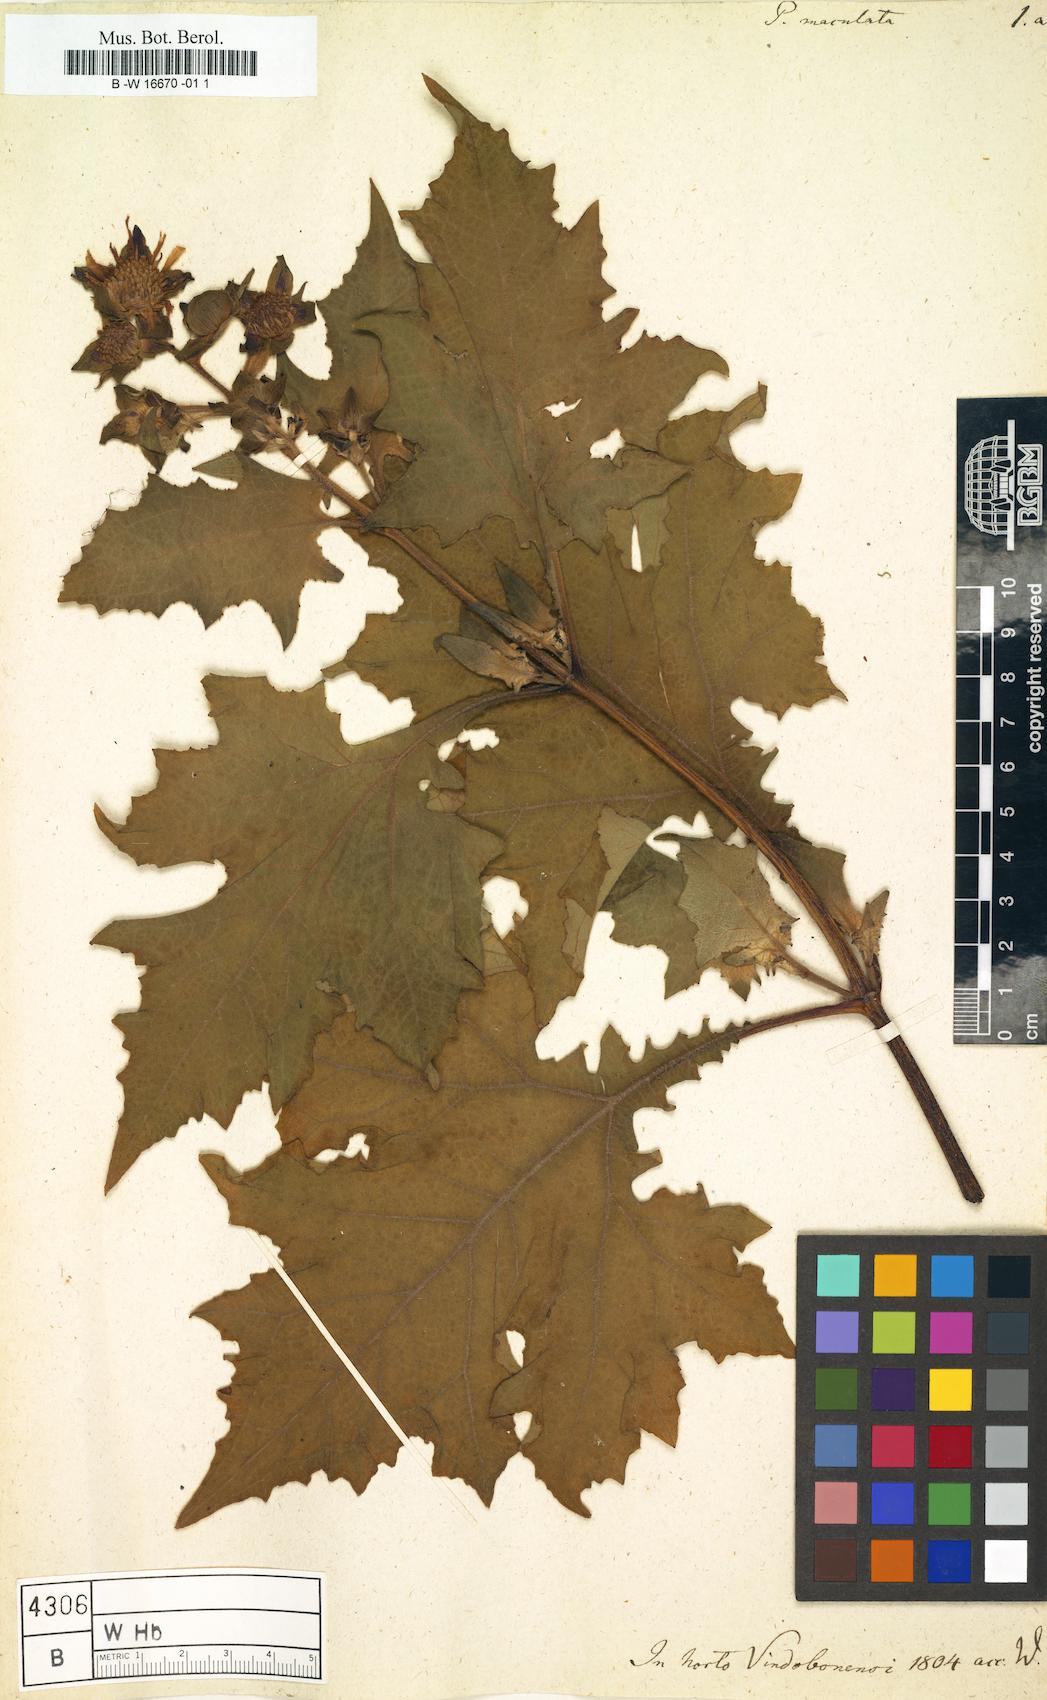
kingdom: Plantae
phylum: Tracheophyta
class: Magnoliopsida
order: Asterales
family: Asteraceae
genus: Smallanthus
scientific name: Smallanthus maculatus
